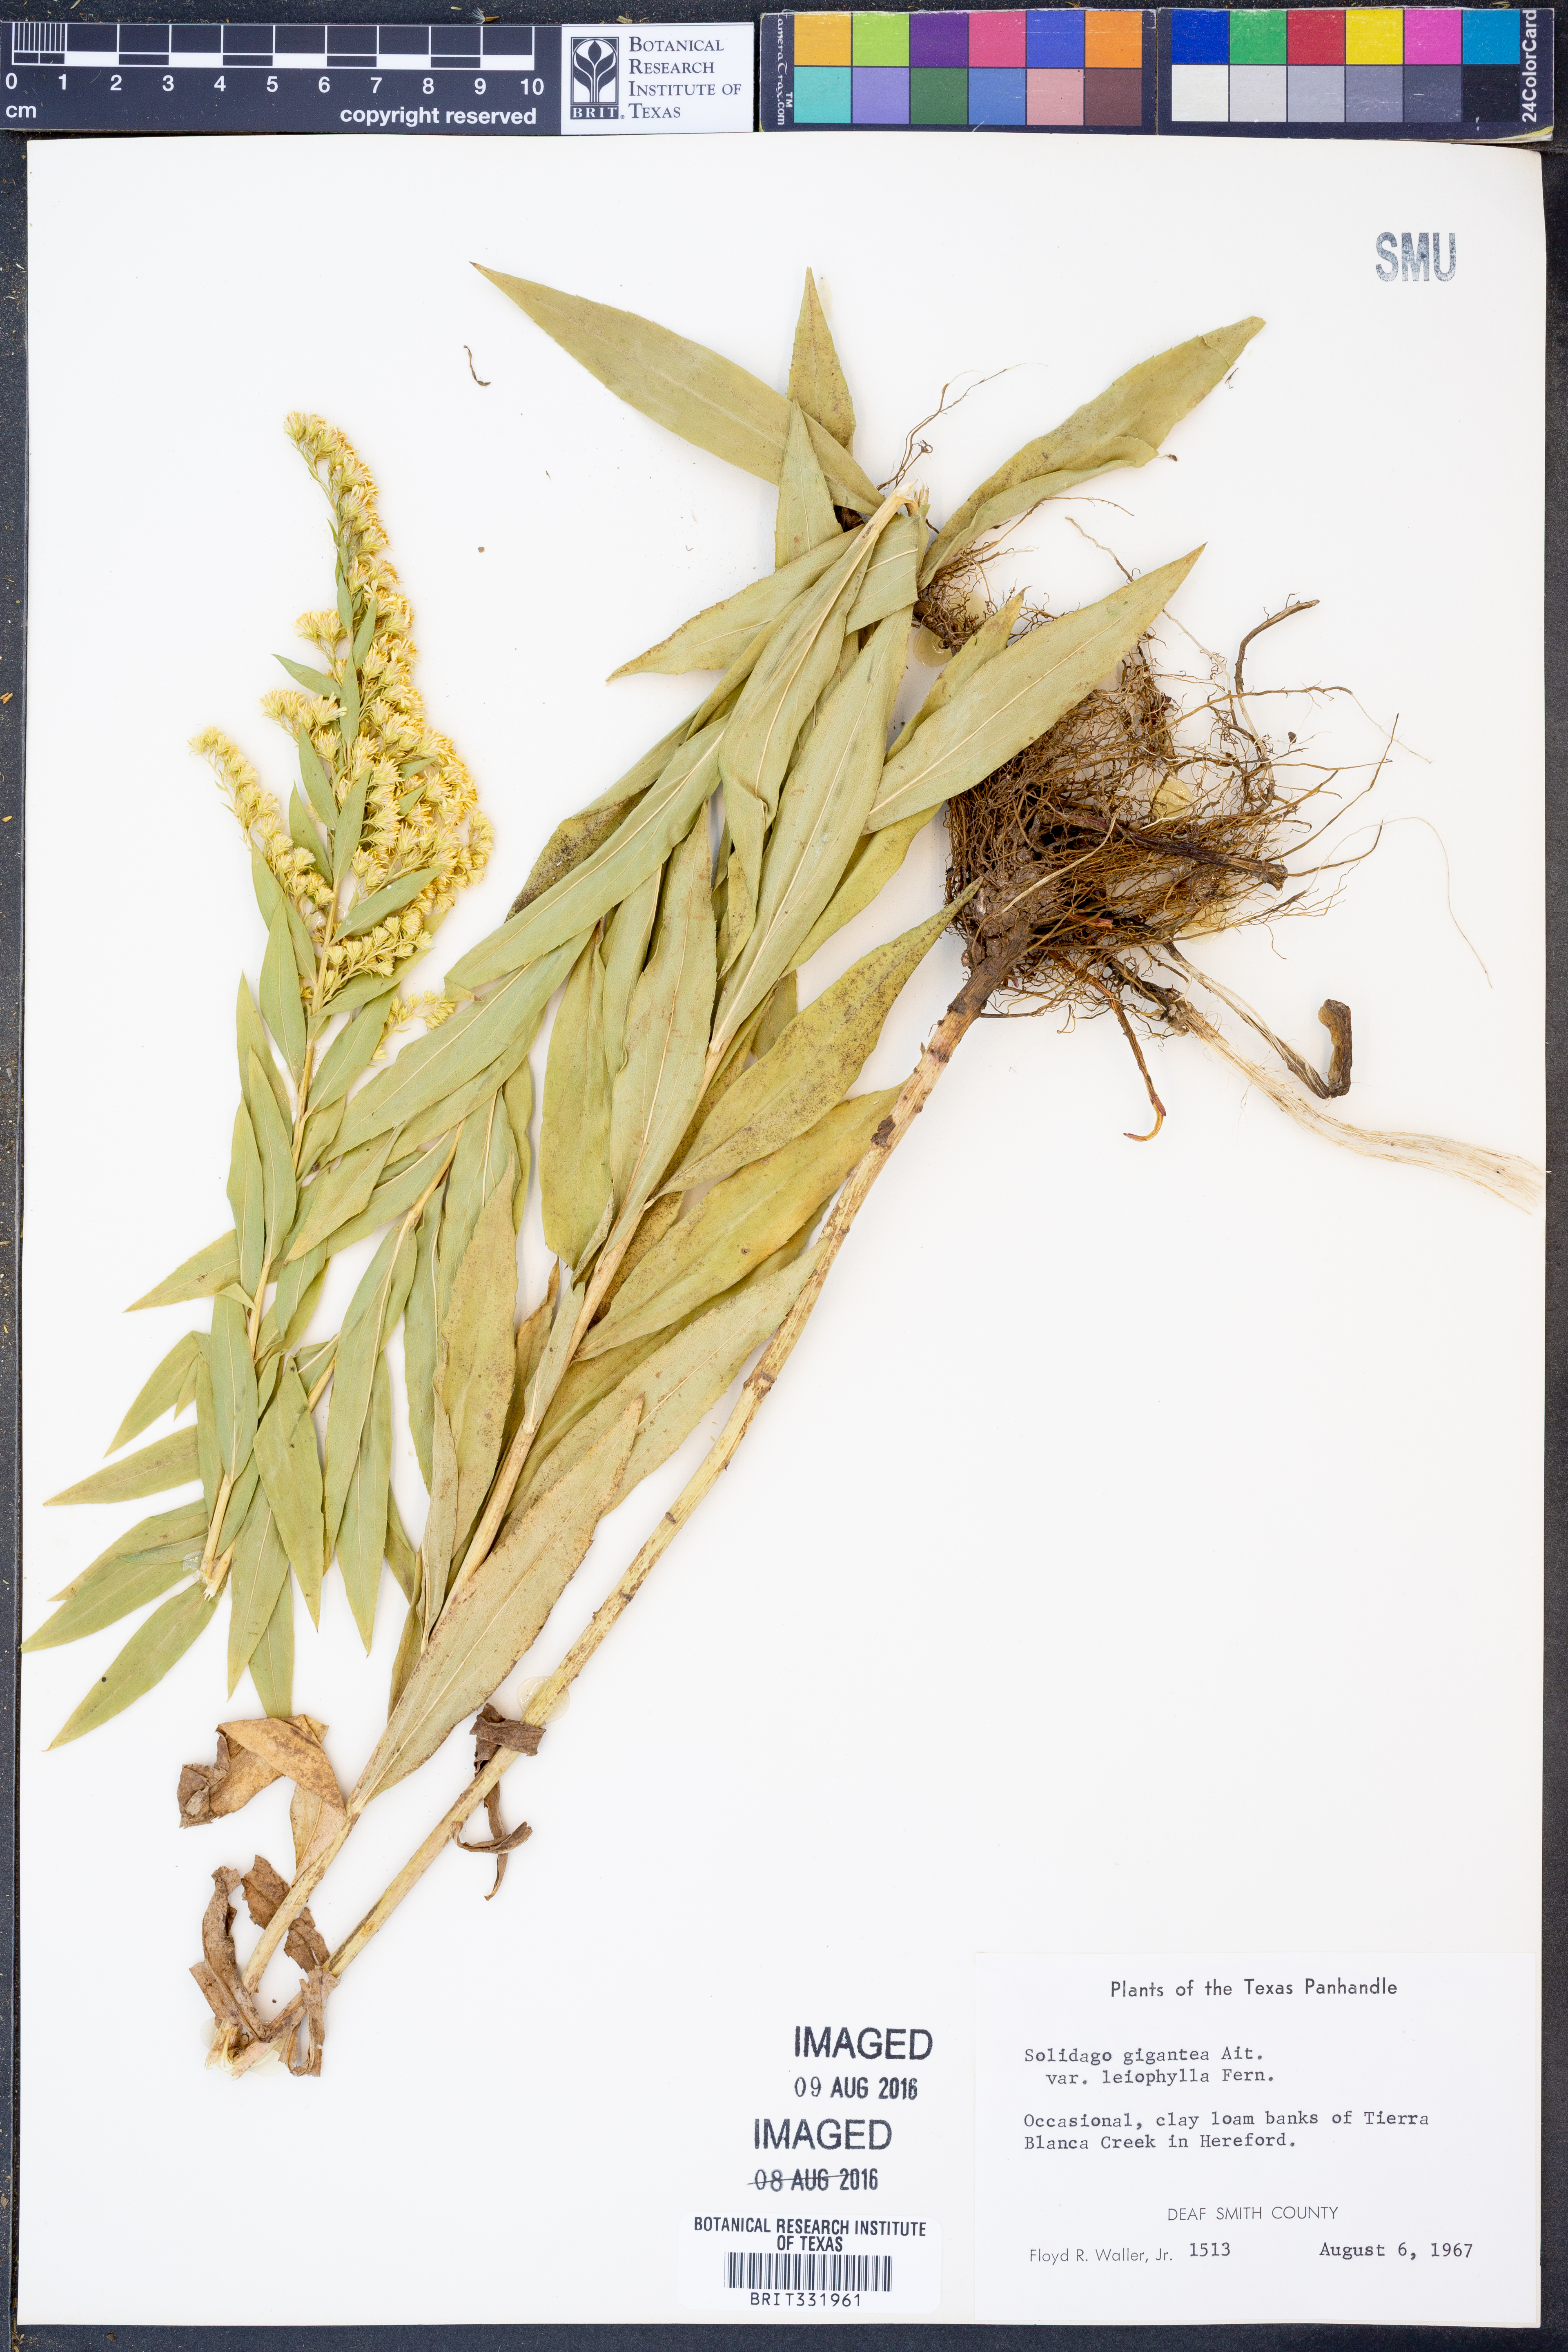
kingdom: Plantae
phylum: Tracheophyta
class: Magnoliopsida
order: Asterales
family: Asteraceae
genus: Solidago
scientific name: Solidago gigantea
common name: Giant goldenrod
